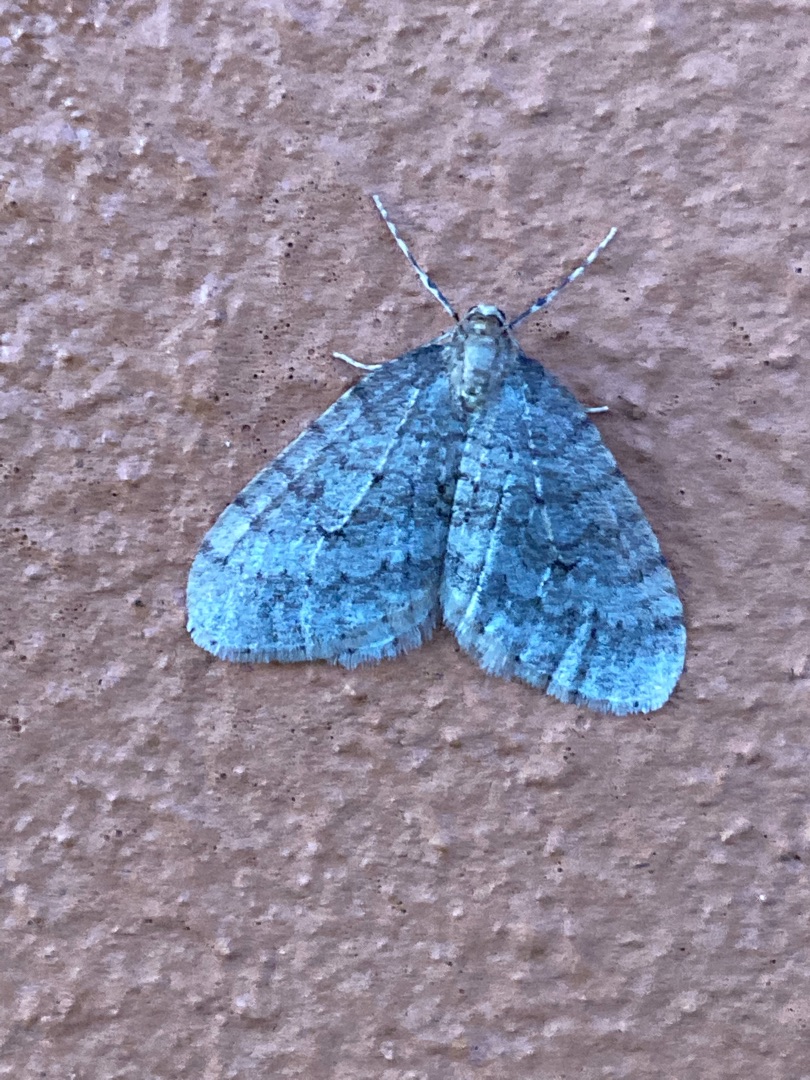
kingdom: Animalia
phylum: Arthropoda
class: Insecta
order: Lepidoptera
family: Geometridae
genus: Operophtera
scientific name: Operophtera brumata
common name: Lille frostmåler
